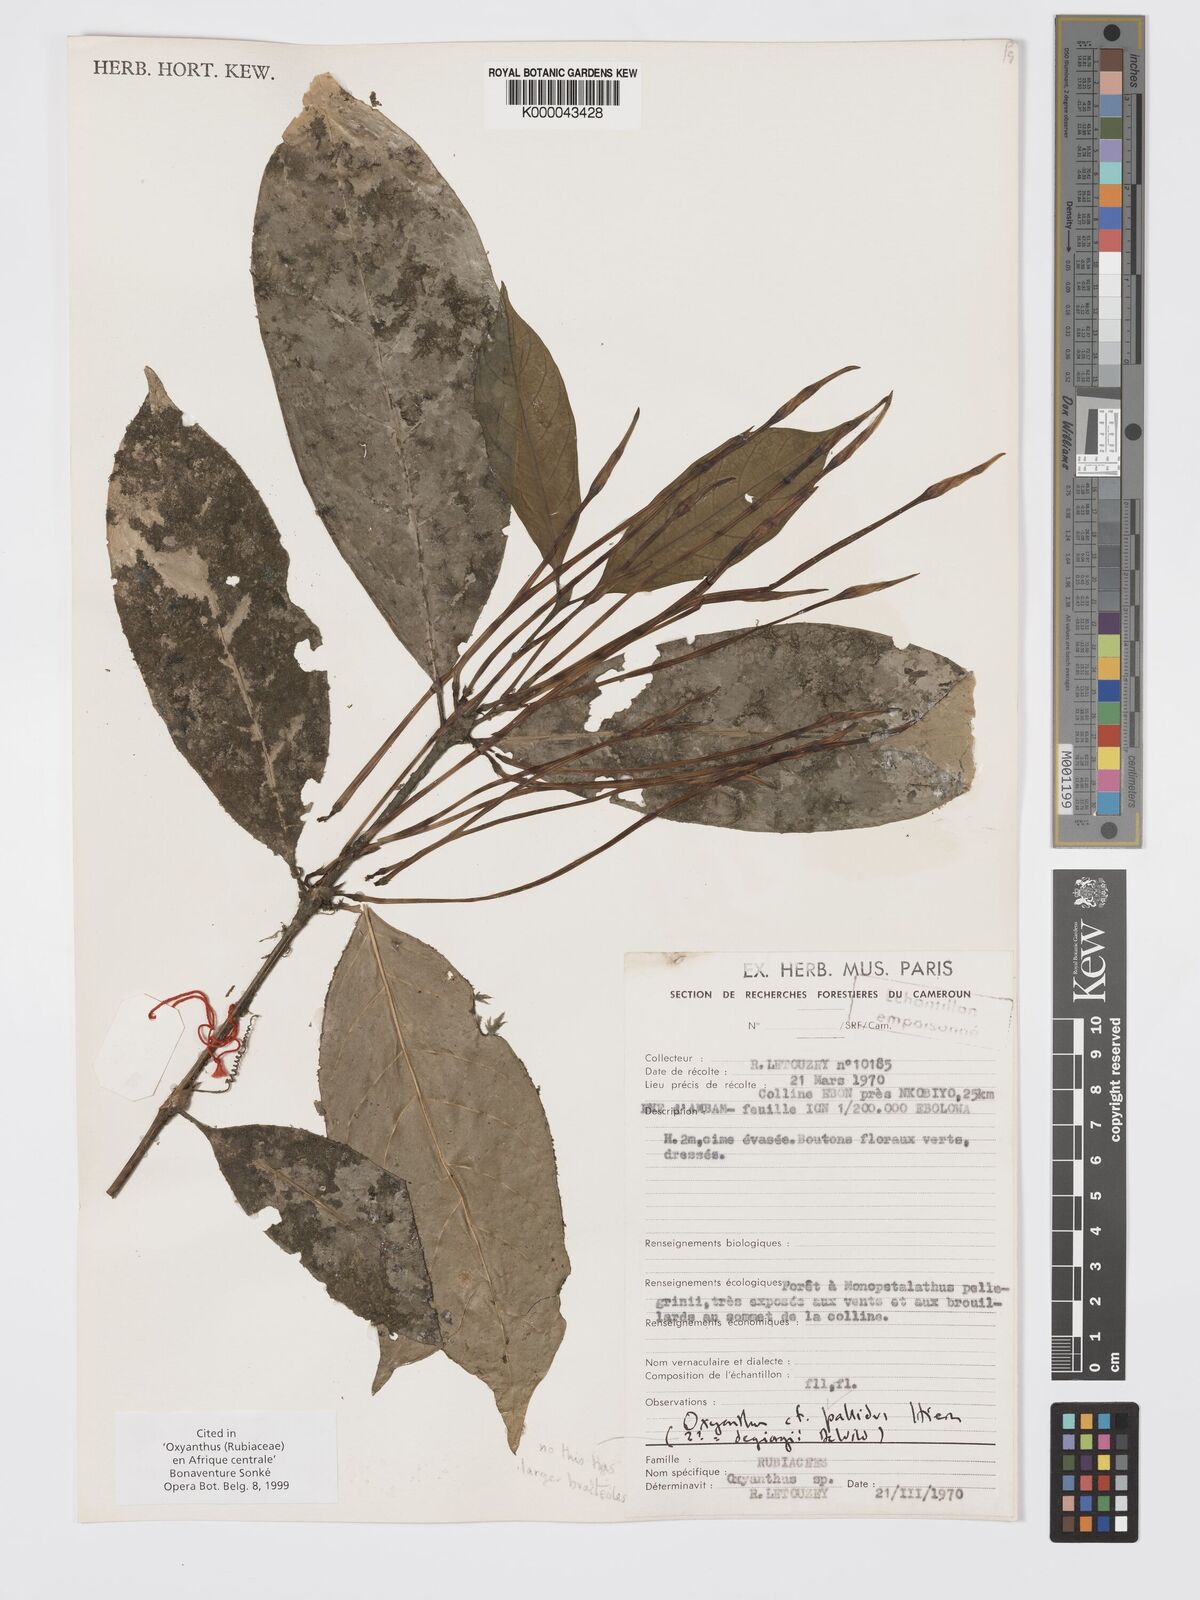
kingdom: Plantae
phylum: Tracheophyta
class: Magnoliopsida
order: Gentianales
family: Rubiaceae
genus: Oxyanthus
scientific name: Oxyanthus pallidus
